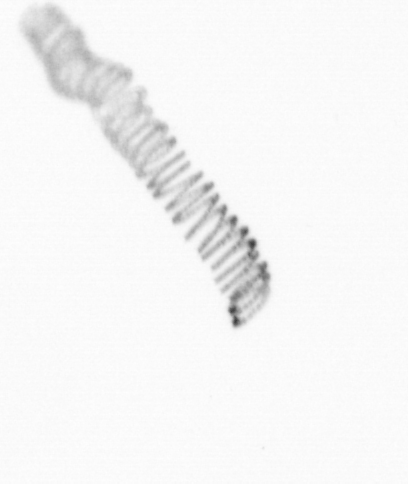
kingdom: Chromista
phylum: Ochrophyta
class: Bacillariophyceae
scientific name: Bacillariophyceae
